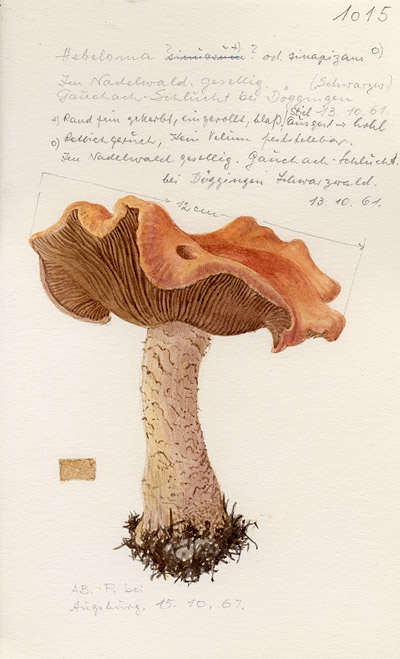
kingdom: Fungi
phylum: Basidiomycota
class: Agaricomycetes
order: Agaricales
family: Hymenogastraceae
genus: Hebeloma
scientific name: Hebeloma sinapizans
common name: Bitter poisonpie
